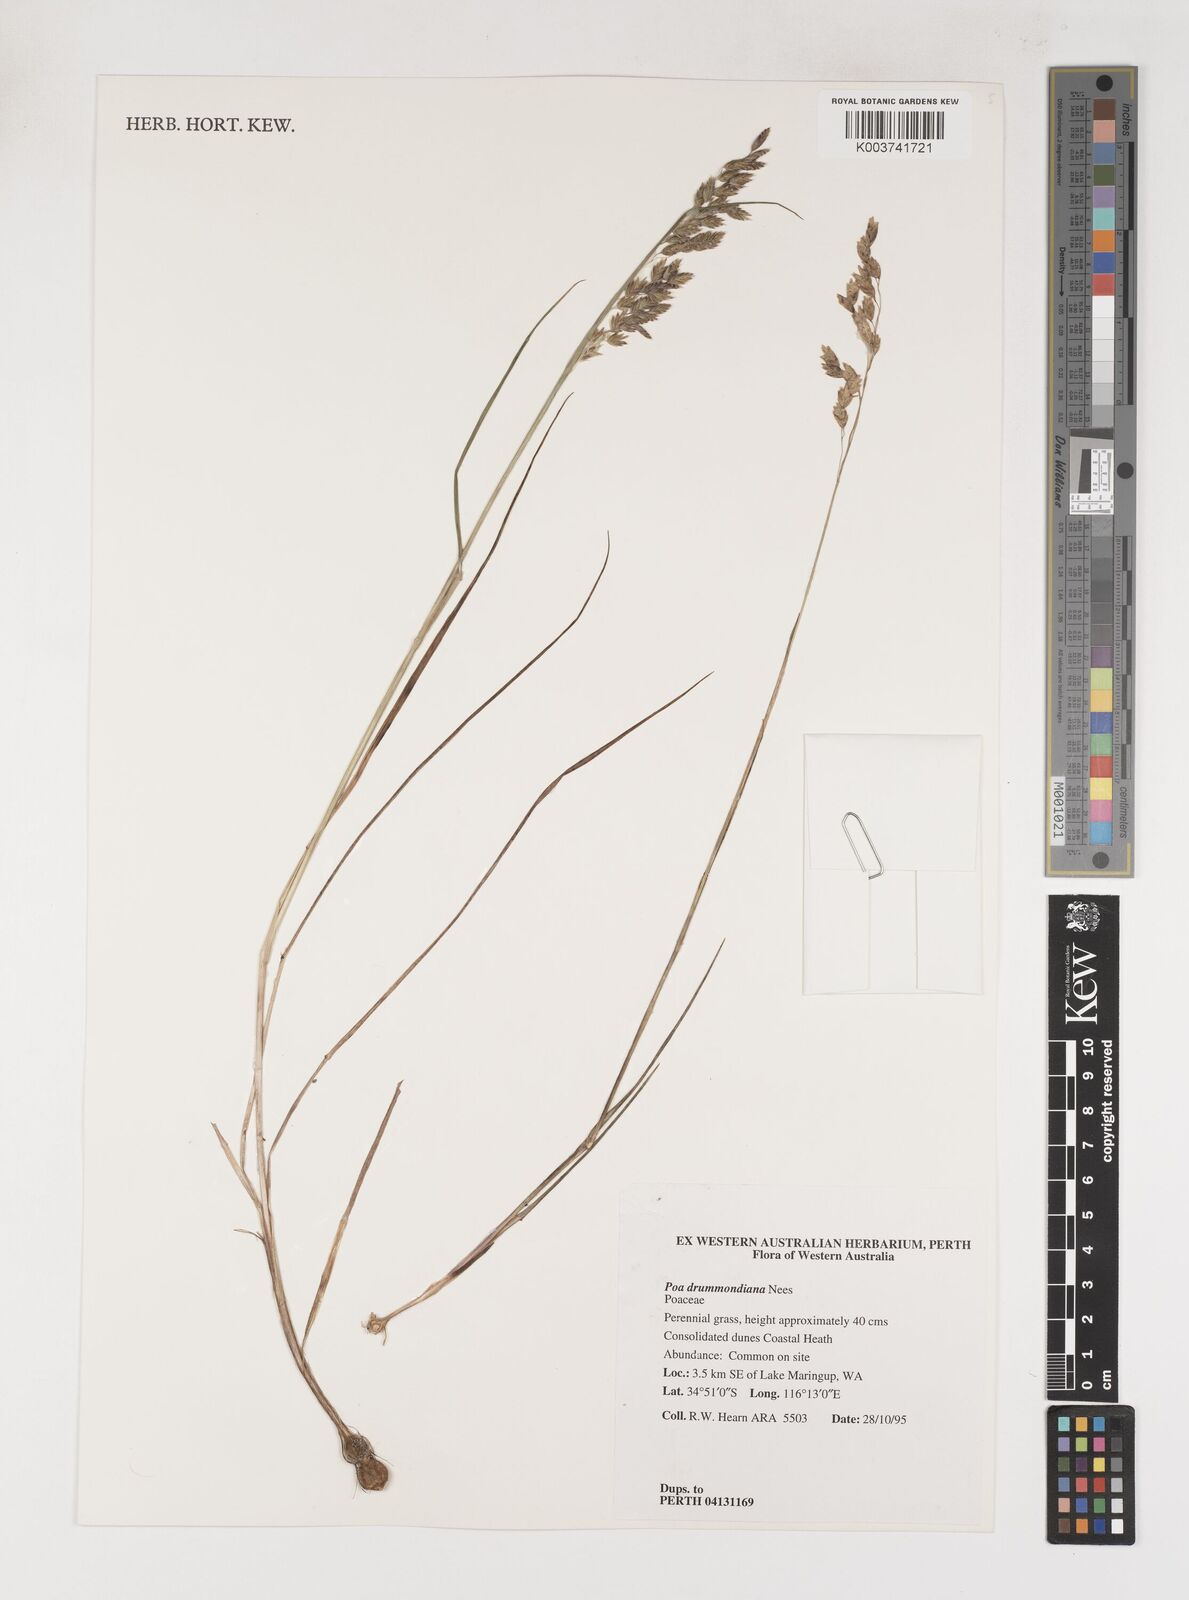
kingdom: Plantae
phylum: Tracheophyta
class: Liliopsida
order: Poales
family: Poaceae
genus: Poa
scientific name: Poa drummondiana
